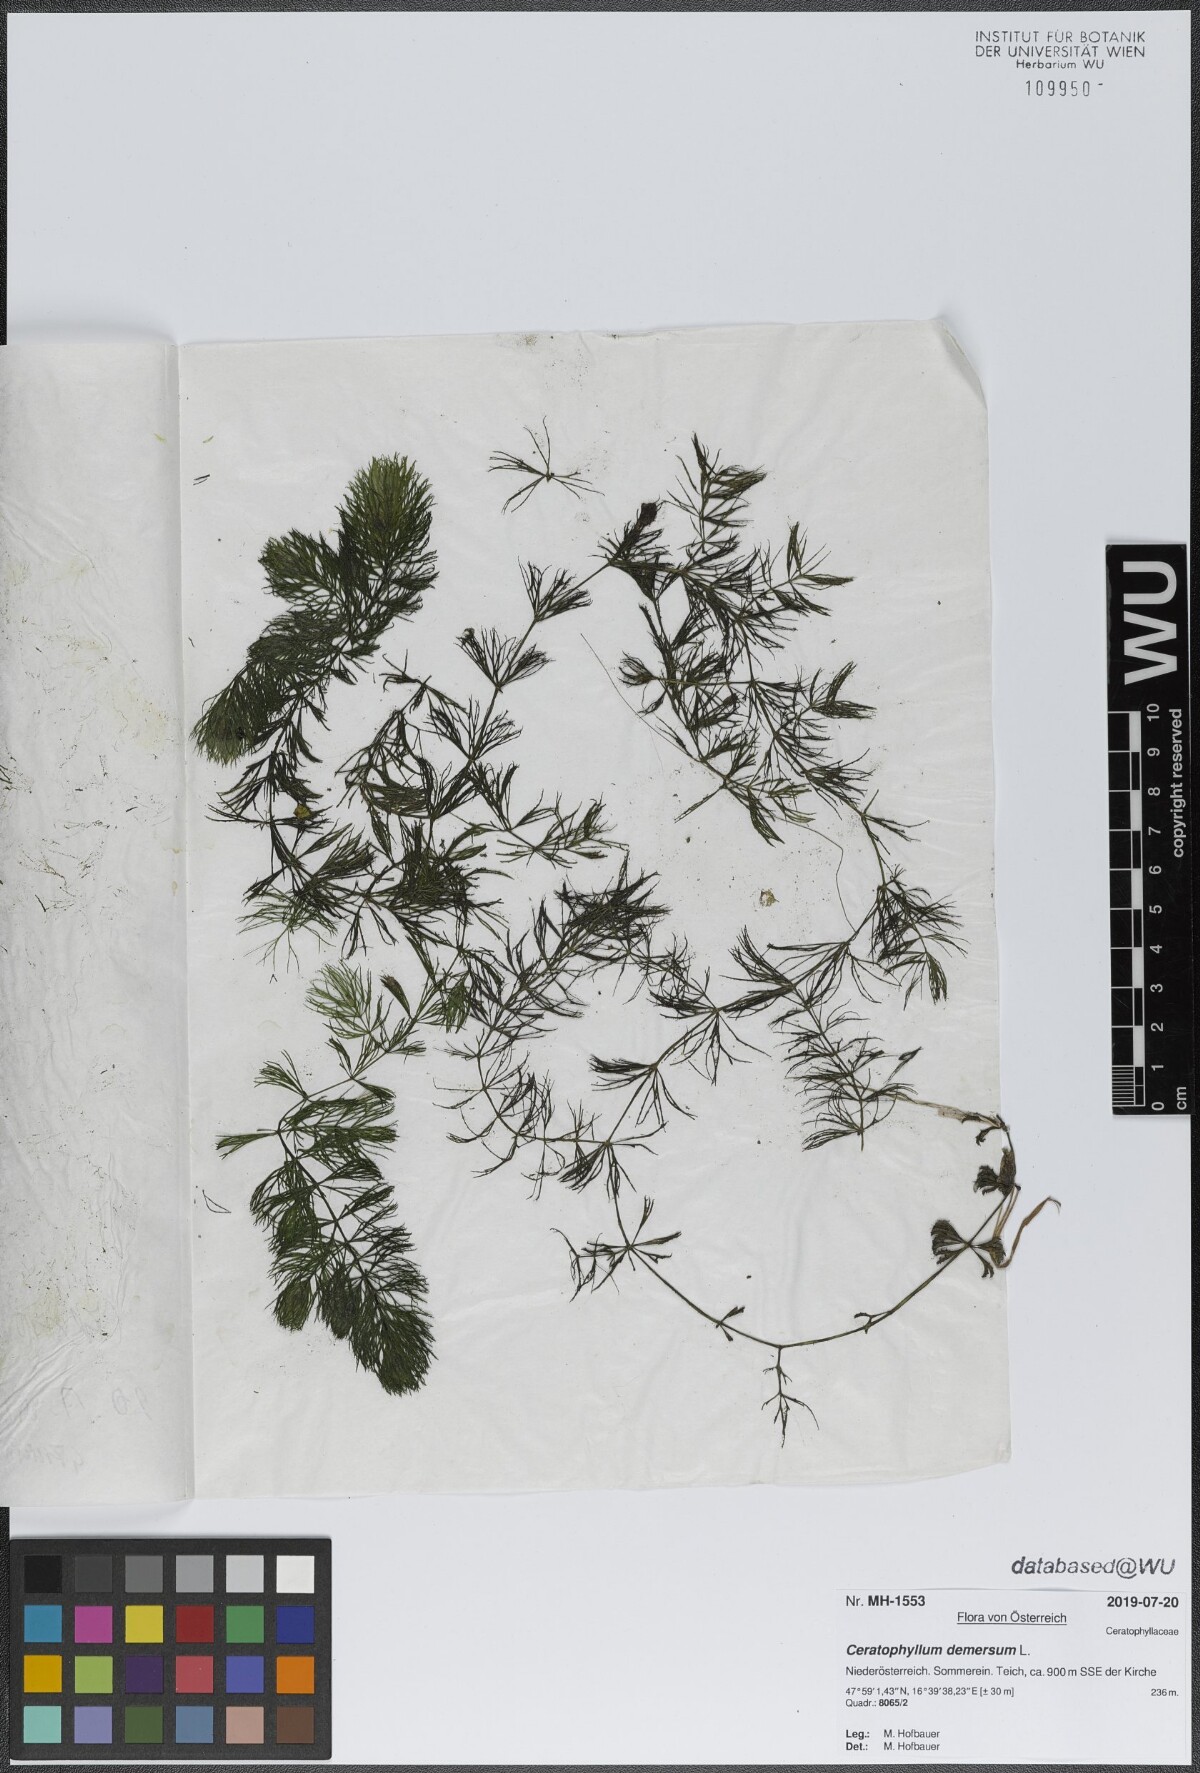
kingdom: Plantae
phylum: Tracheophyta
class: Magnoliopsida
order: Ceratophyllales
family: Ceratophyllaceae
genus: Ceratophyllum
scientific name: Ceratophyllum demersum
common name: Rigid hornwort
